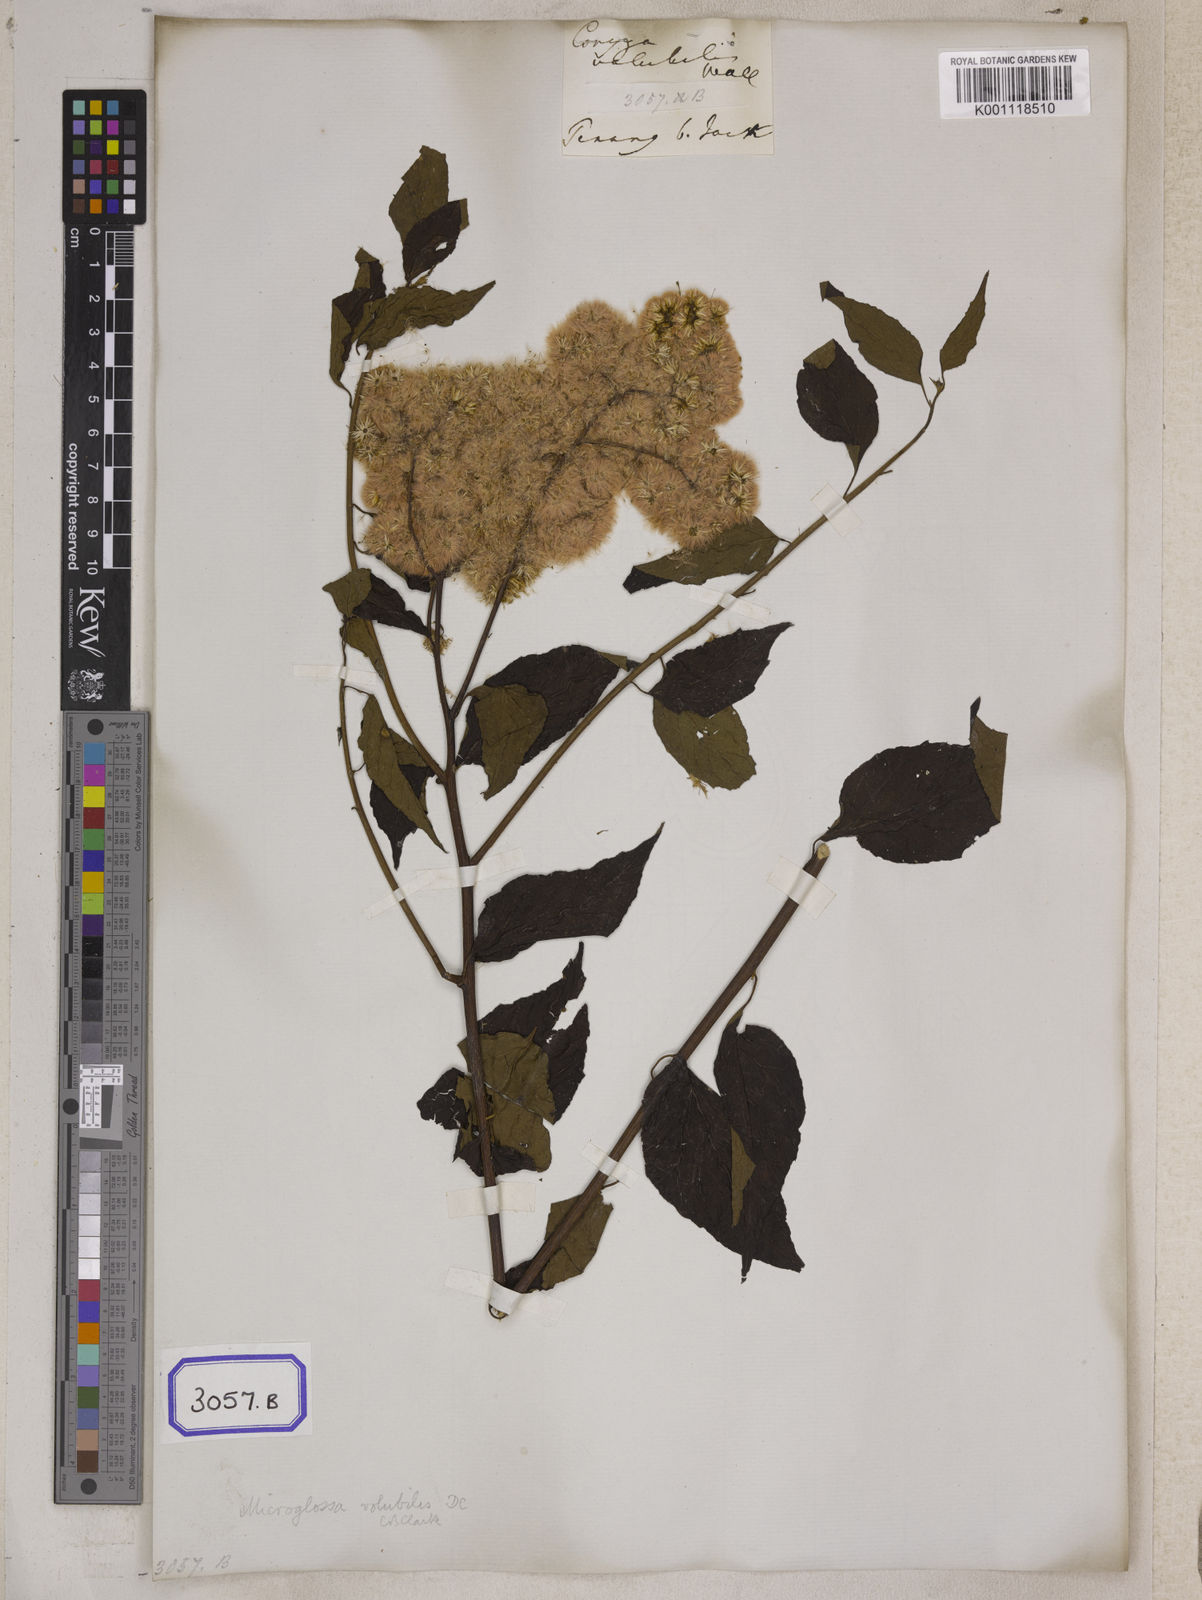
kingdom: Plantae
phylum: Tracheophyta
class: Magnoliopsida
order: Asterales
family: Asteraceae
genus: Microglossa
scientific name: Microglossa pyrifolia
